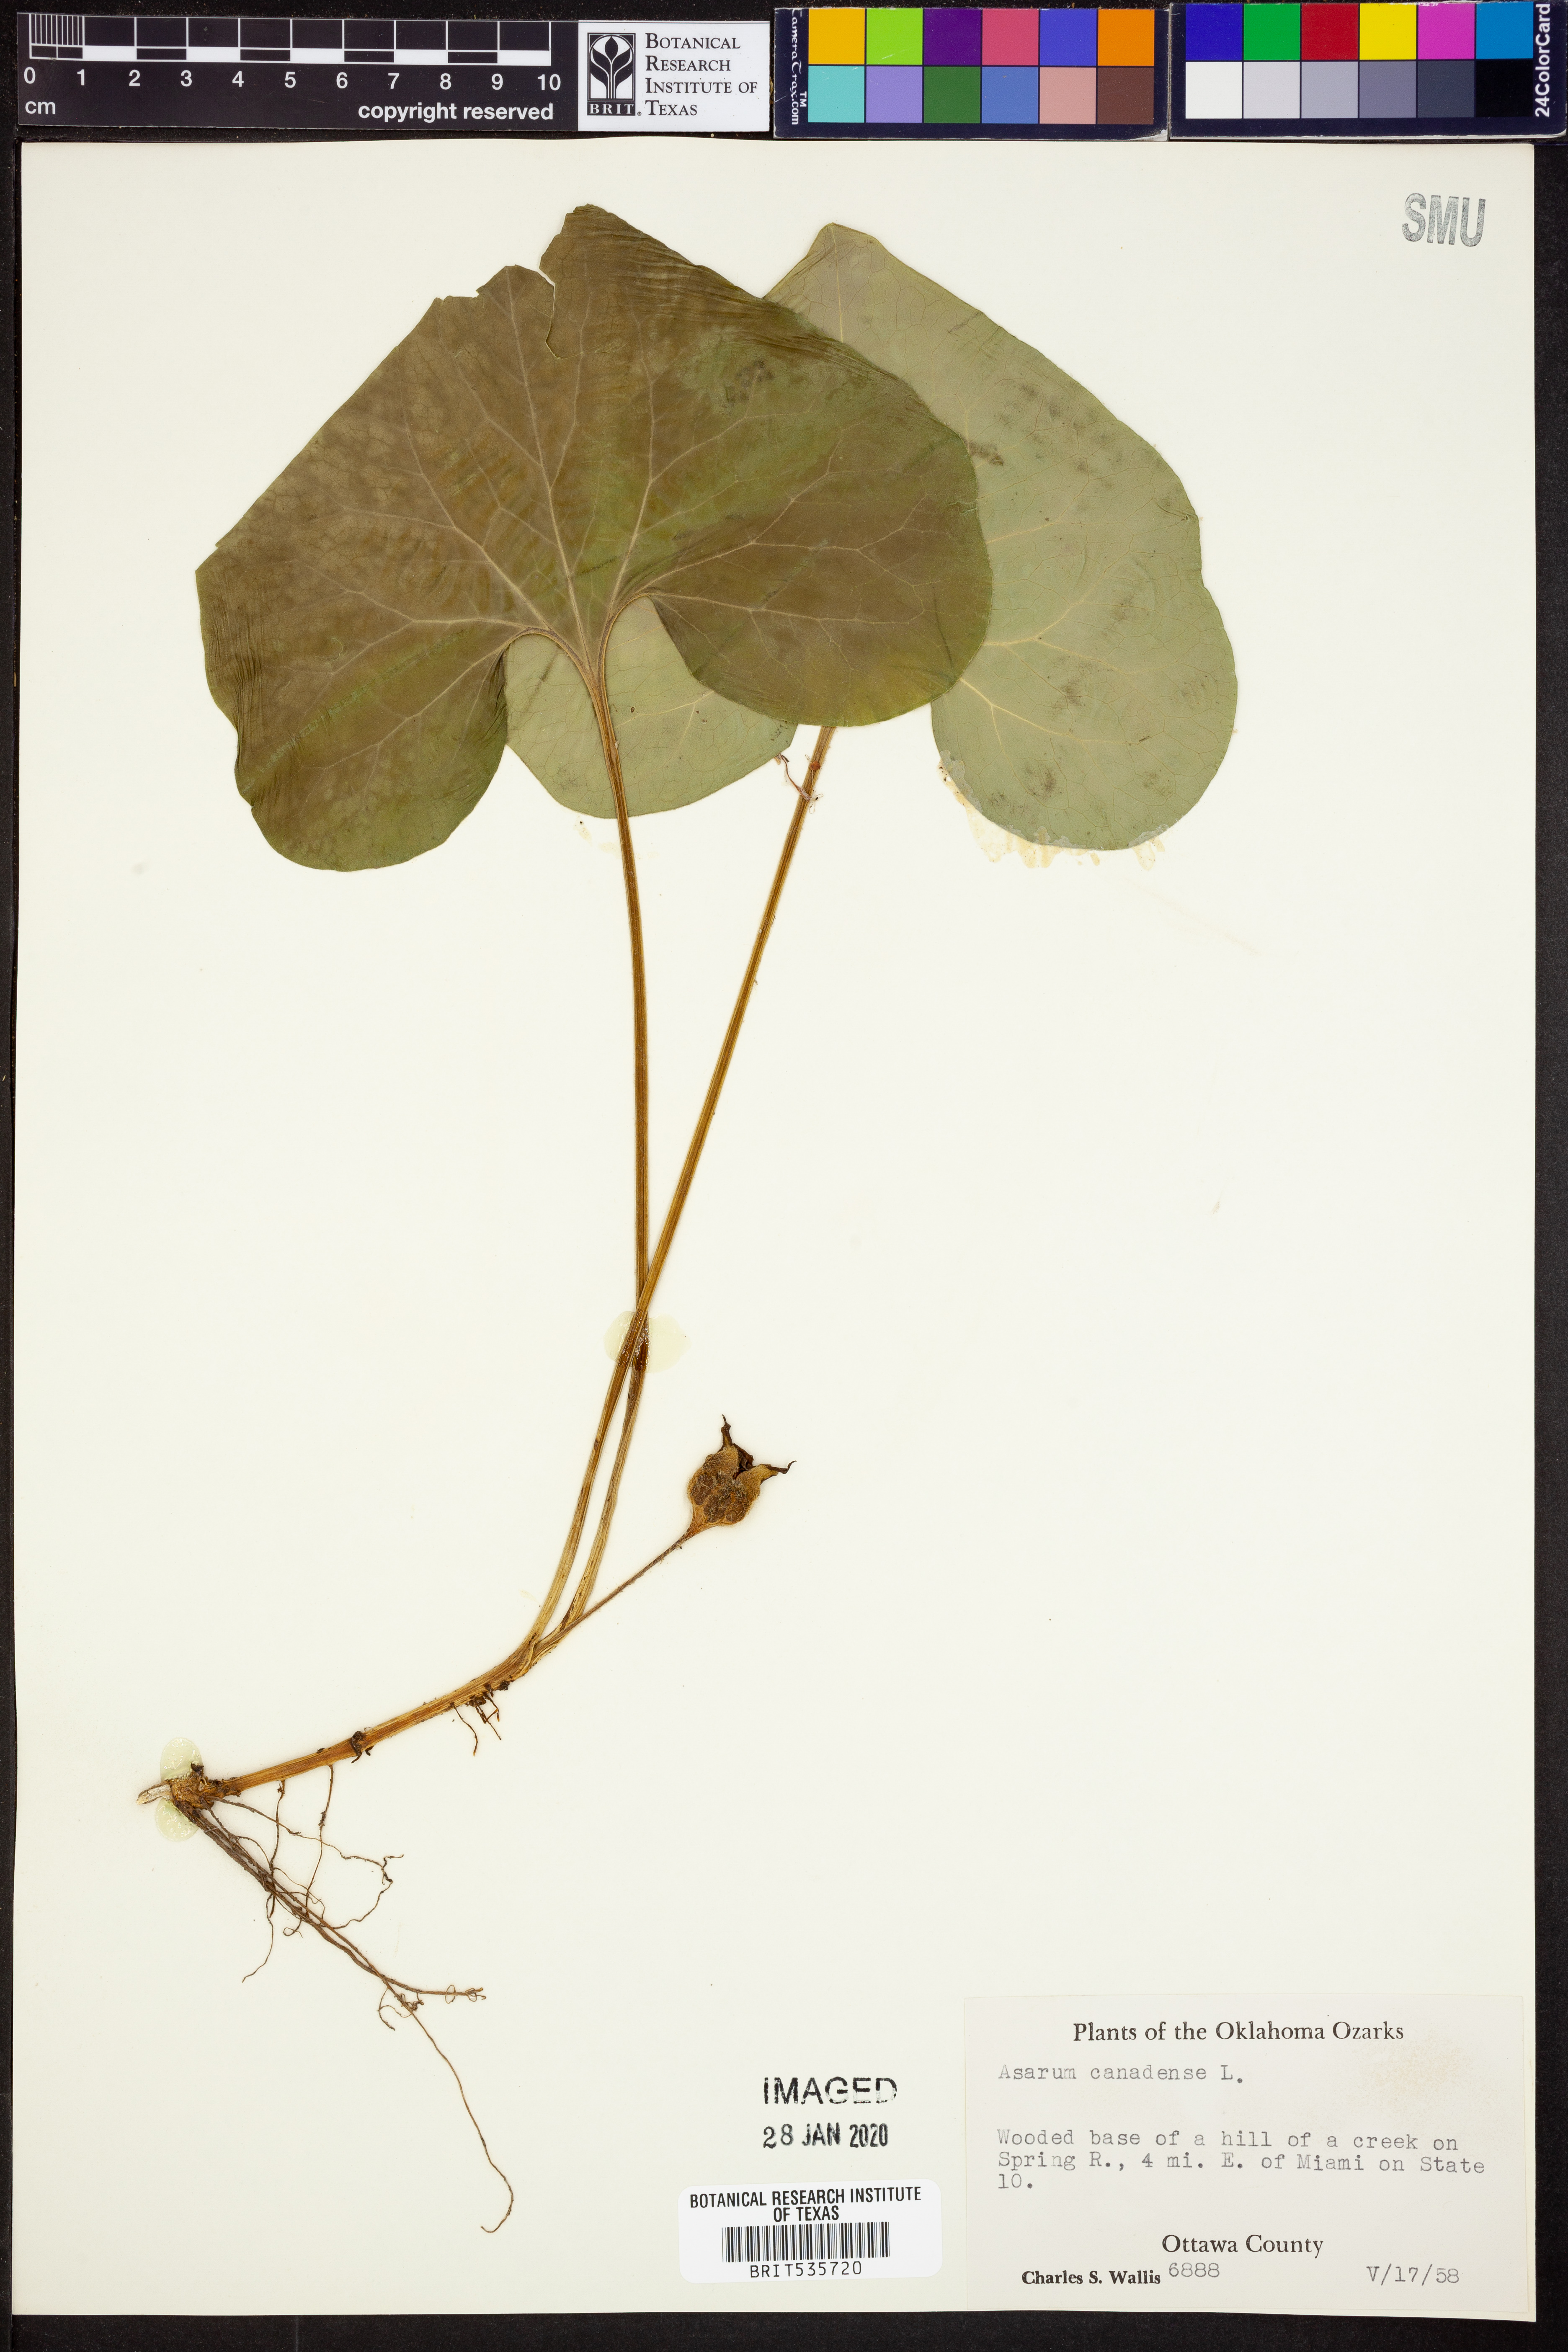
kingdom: Plantae
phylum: Tracheophyta
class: Magnoliopsida
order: Piperales
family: Aristolochiaceae
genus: Asarum
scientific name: Asarum canadense
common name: Wild ginger
